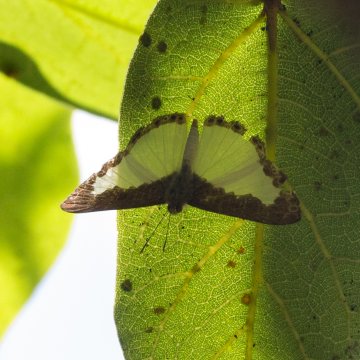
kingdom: Animalia
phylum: Arthropoda
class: Insecta
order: Lepidoptera
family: Riodinidae
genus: Juditha
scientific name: Juditha
